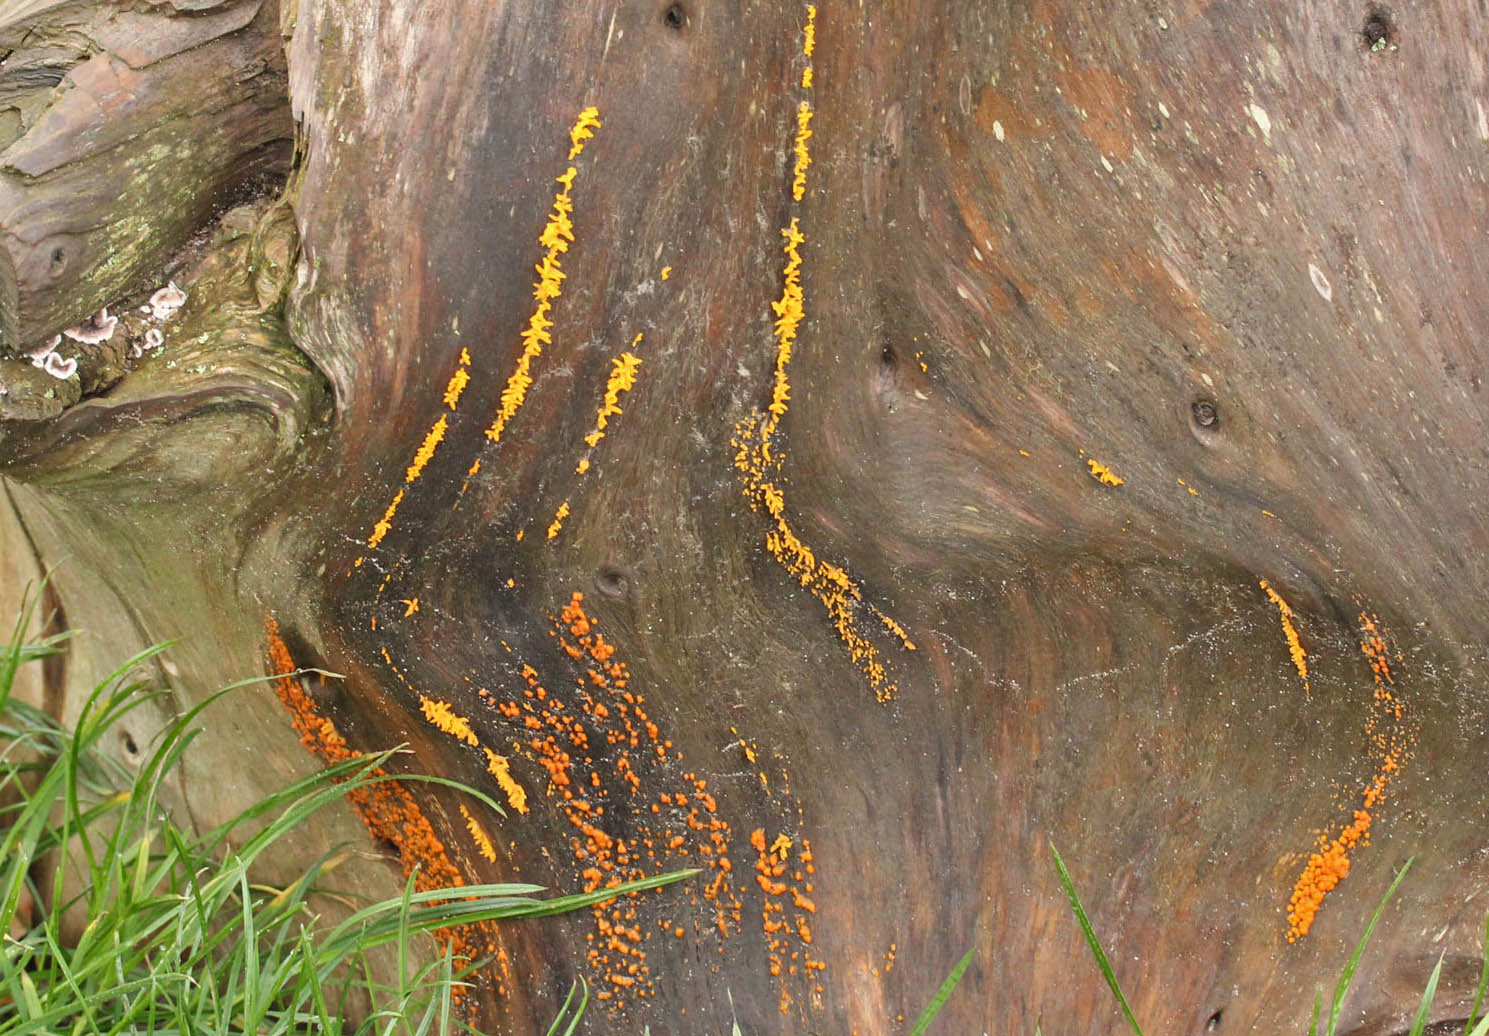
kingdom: Fungi
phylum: Basidiomycota
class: Dacrymycetes
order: Dacrymycetales
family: Dacrymycetaceae
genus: Calocera
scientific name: Calocera furcata
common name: fyrre-guldgaffel
